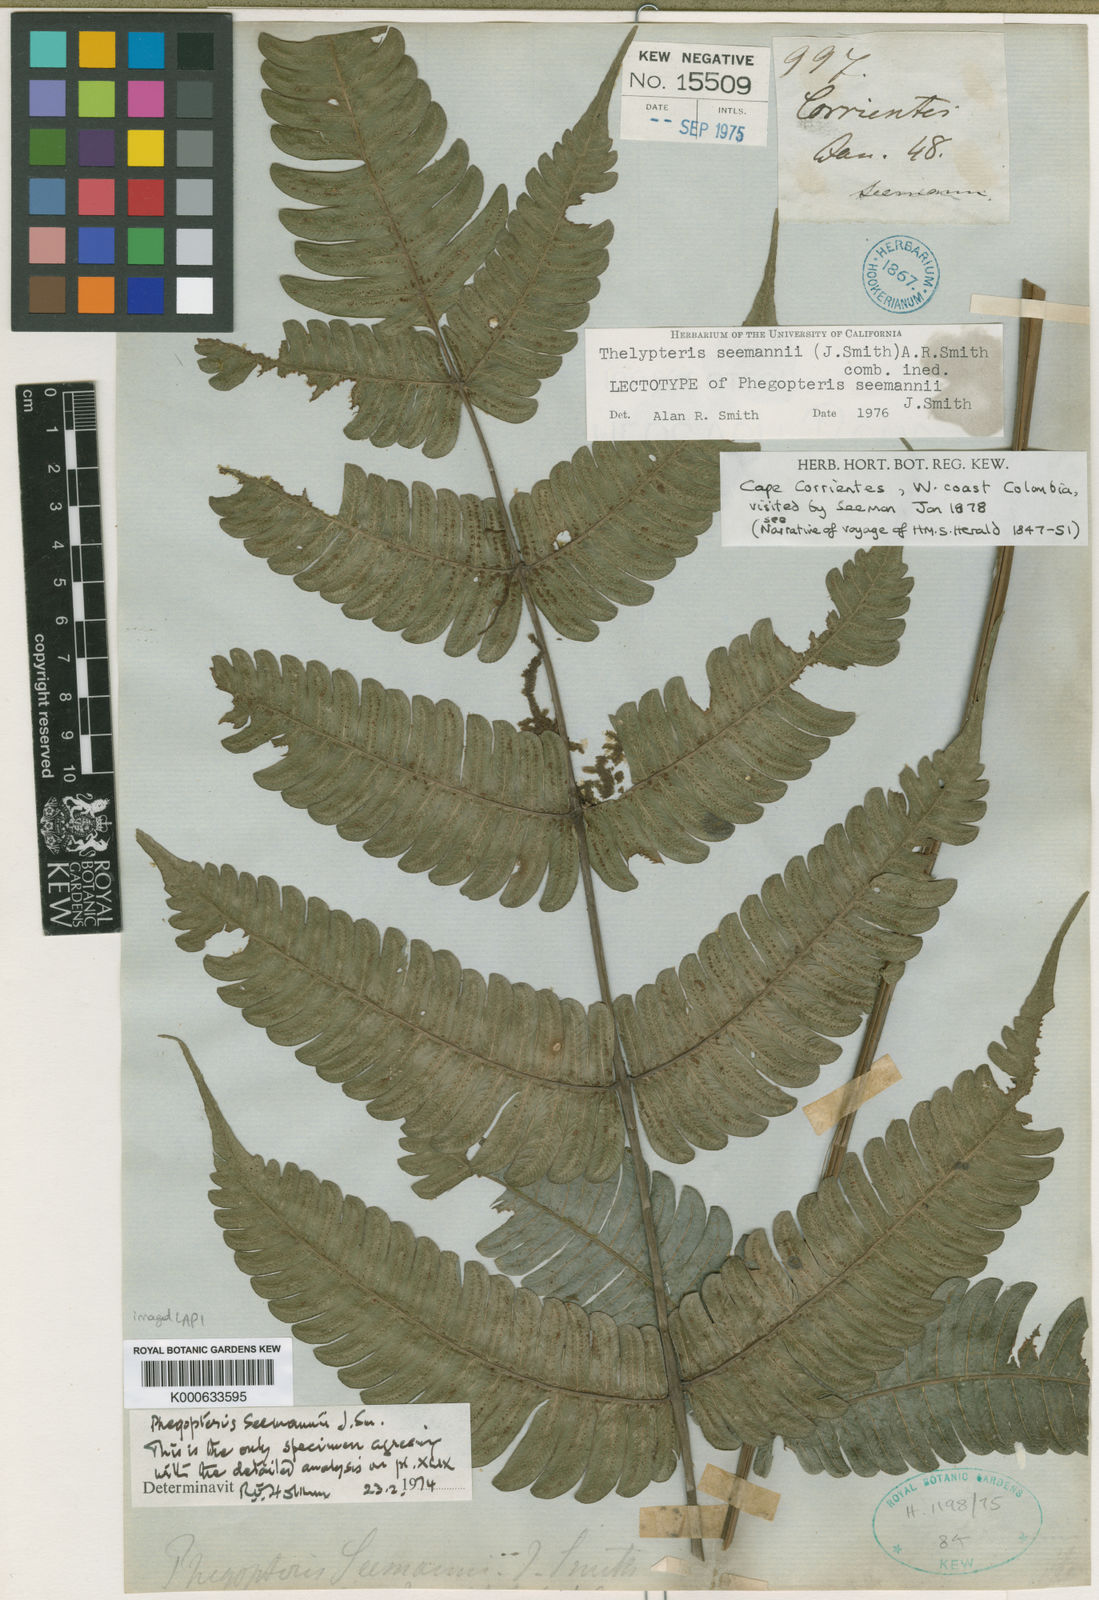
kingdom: Plantae
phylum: Tracheophyta
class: Polypodiopsida
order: Polypodiales
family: Thelypteridaceae
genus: Steiropteris
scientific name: Steiropteris seemannii
